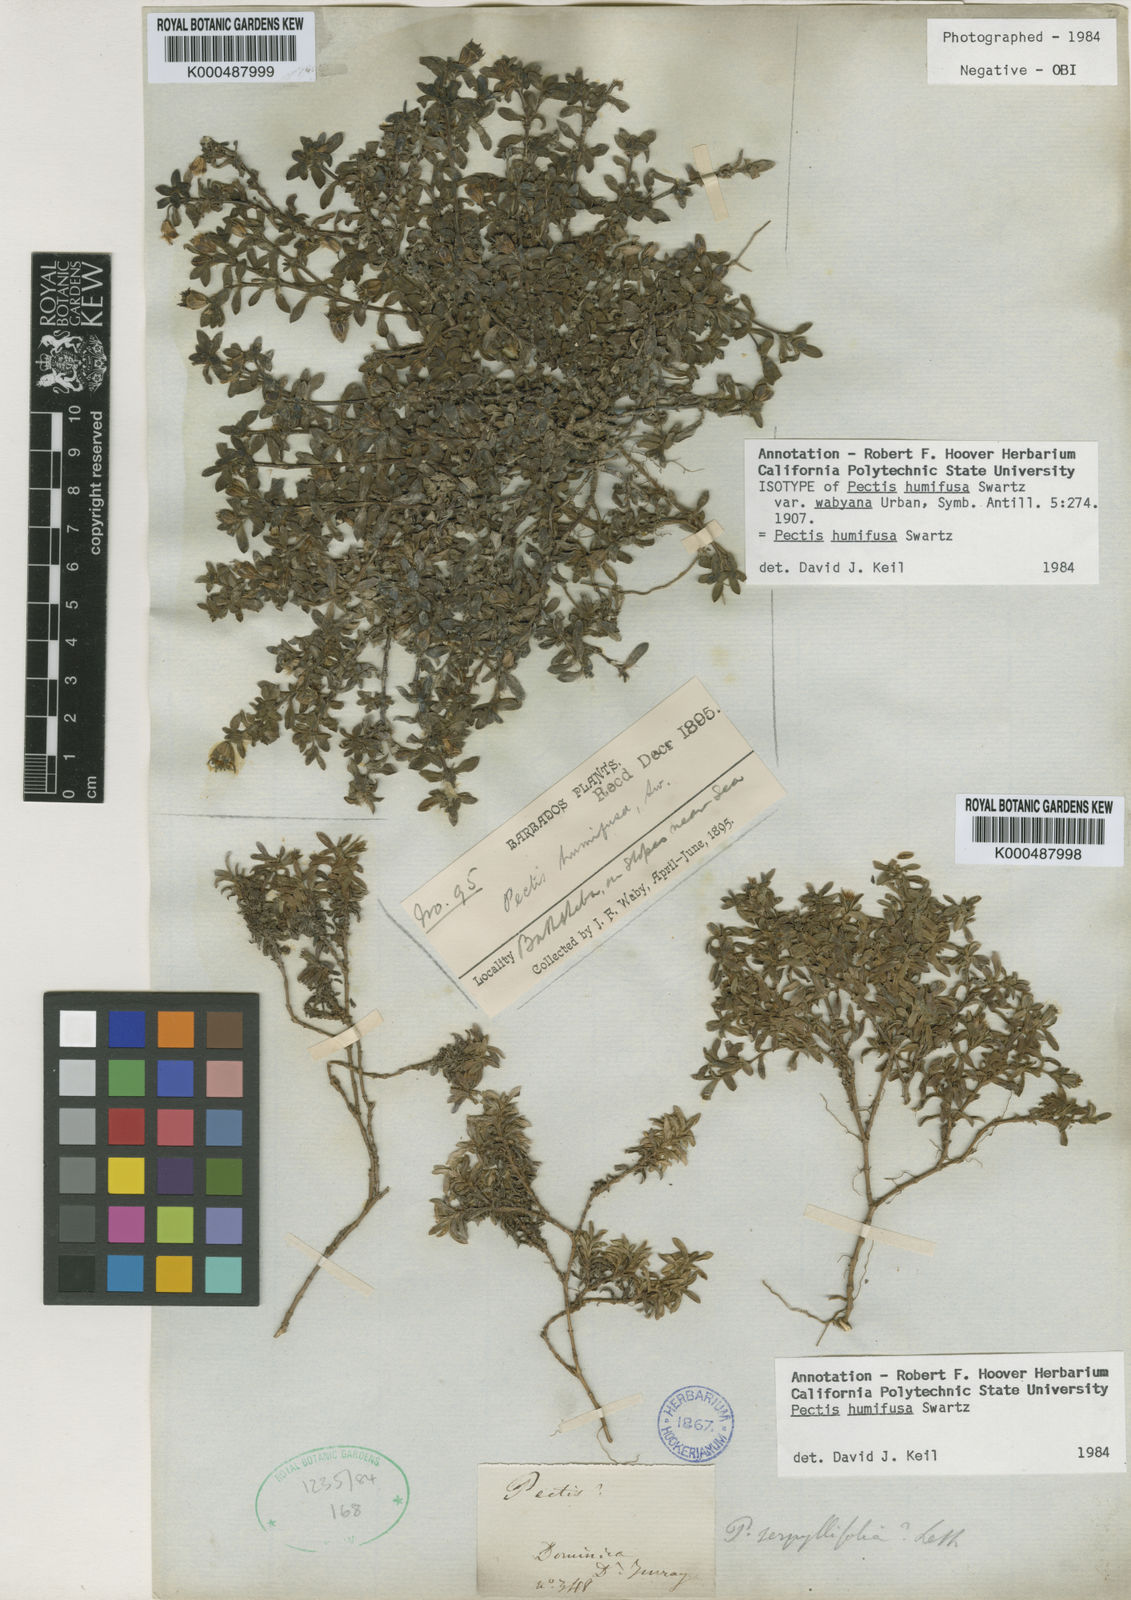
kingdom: Plantae
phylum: Tracheophyta
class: Magnoliopsida
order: Asterales
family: Asteraceae
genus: Pectis
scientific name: Pectis humifusa
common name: Yerba de san juan
